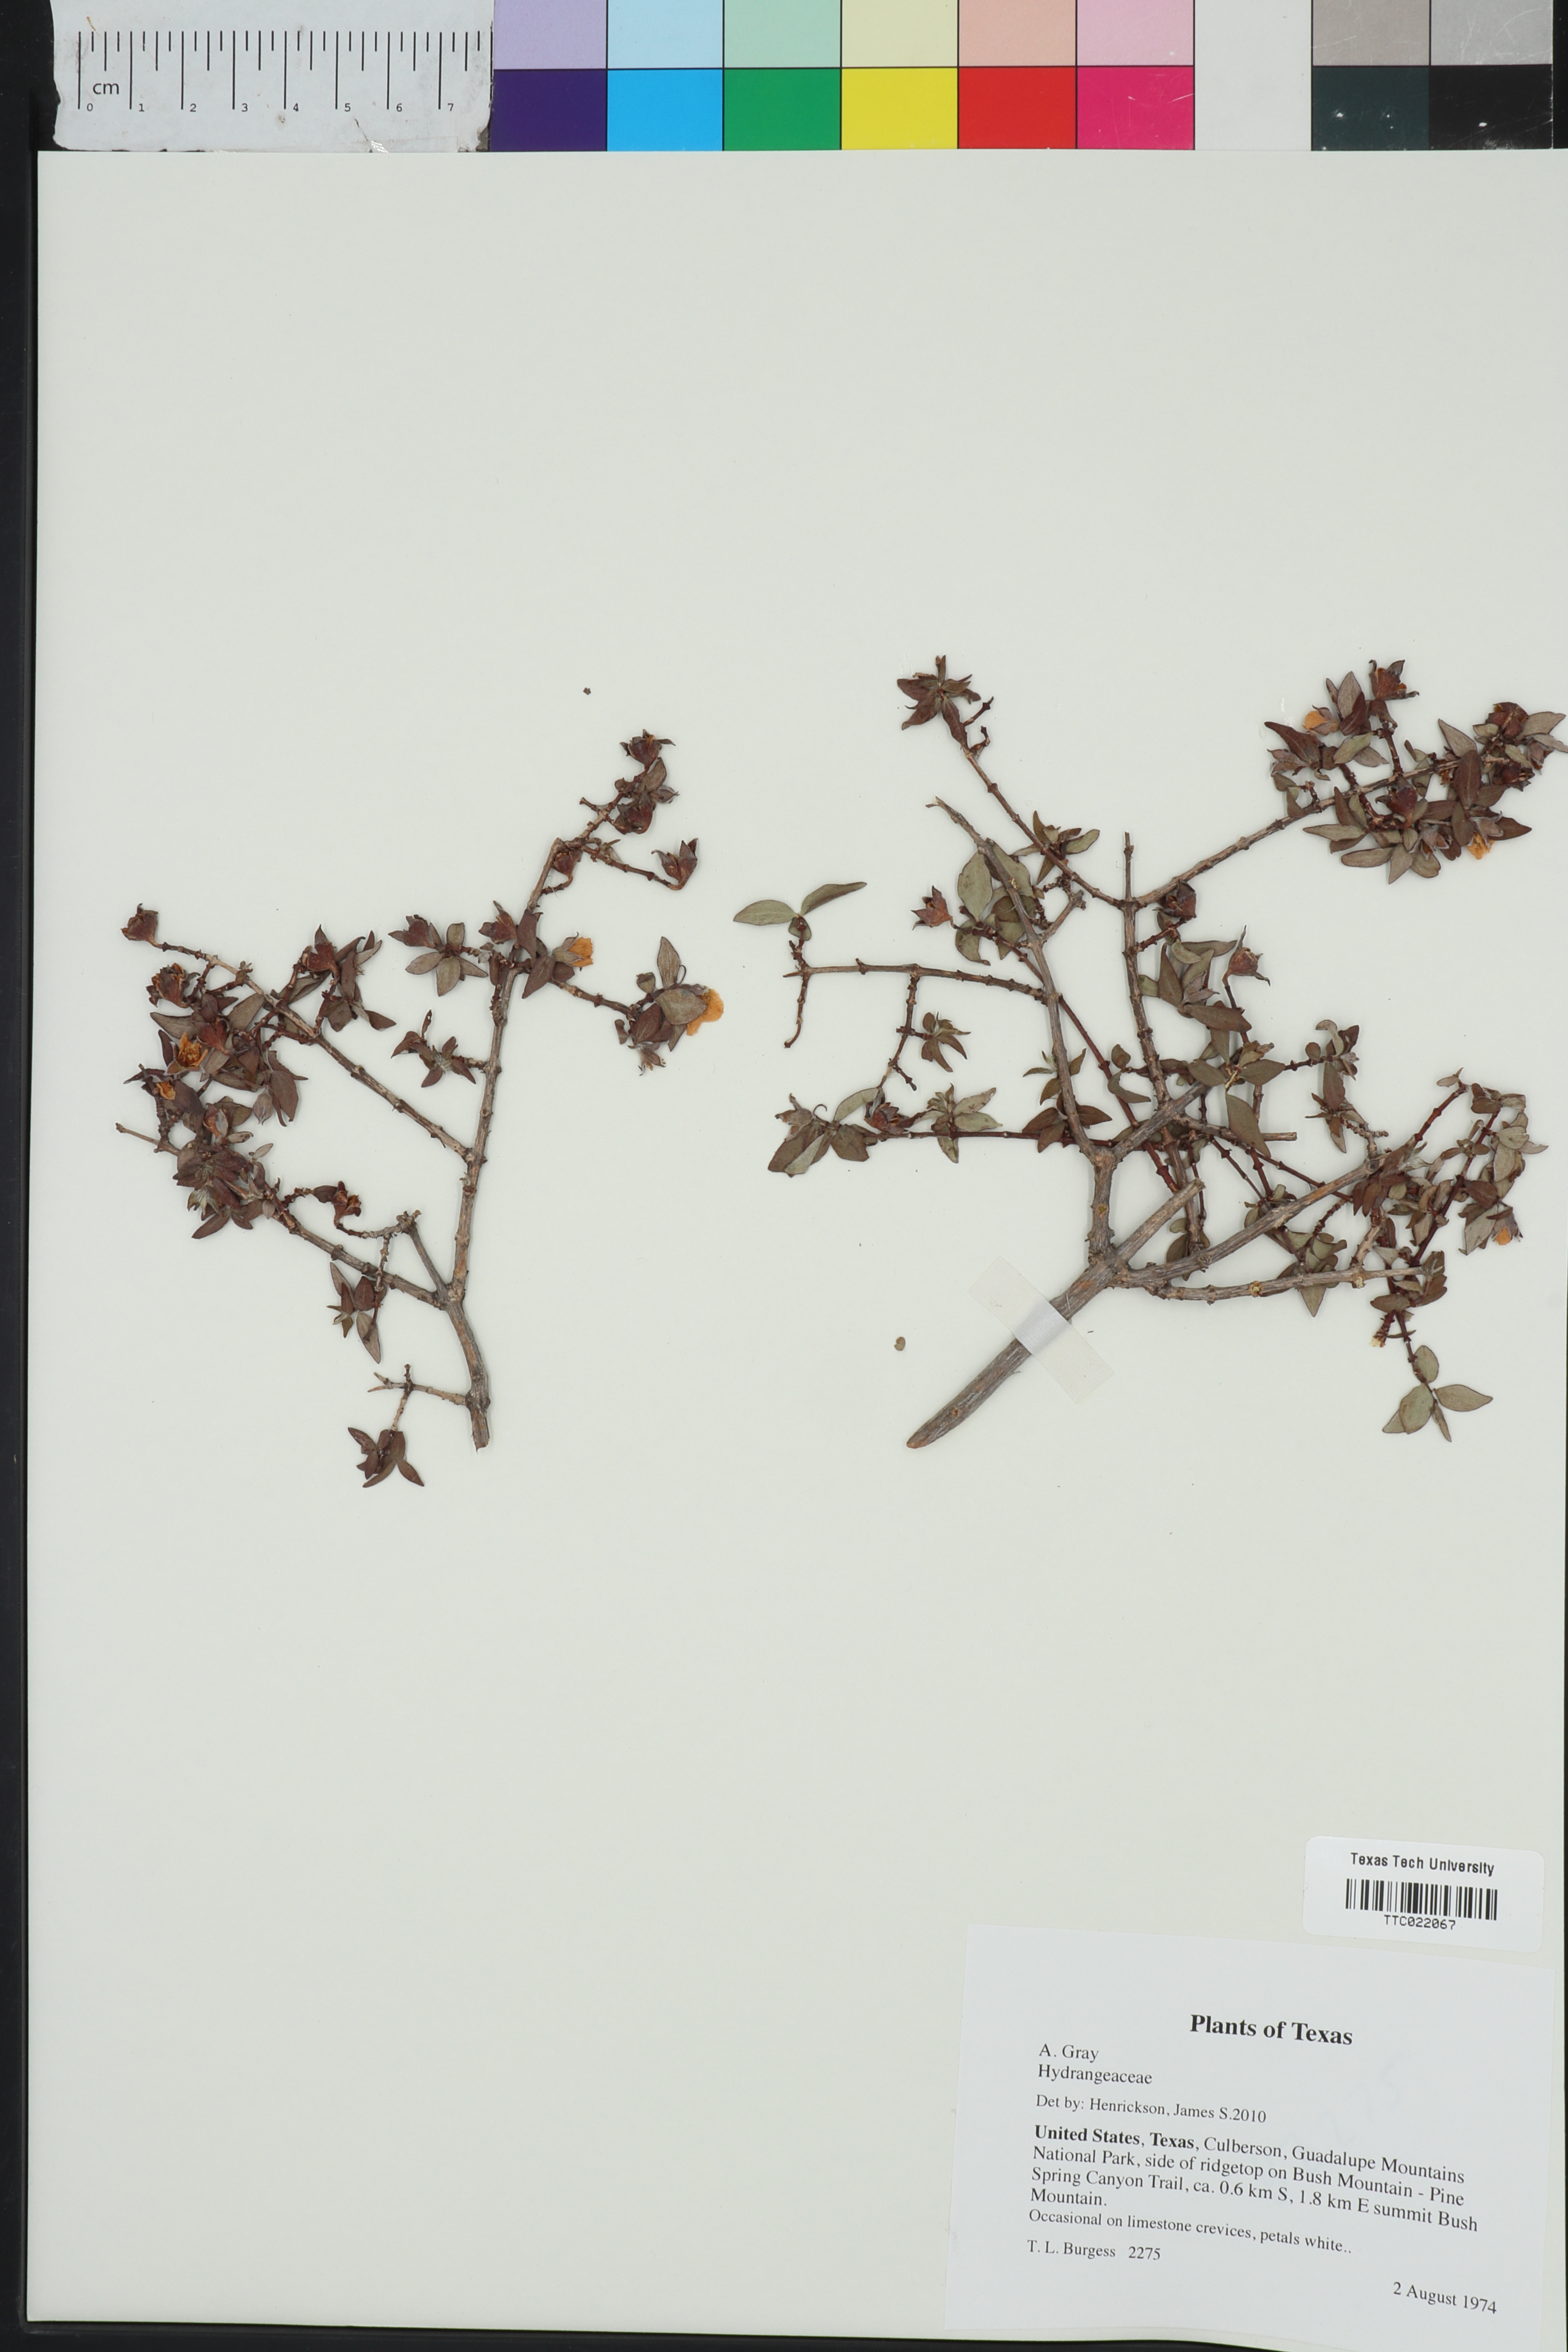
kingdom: Plantae
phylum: Tracheophyta
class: Magnoliopsida
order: Cornales
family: Hydrangeaceae
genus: Philadelphus
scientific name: Philadelphus microphyllus
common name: Desert mock orange
